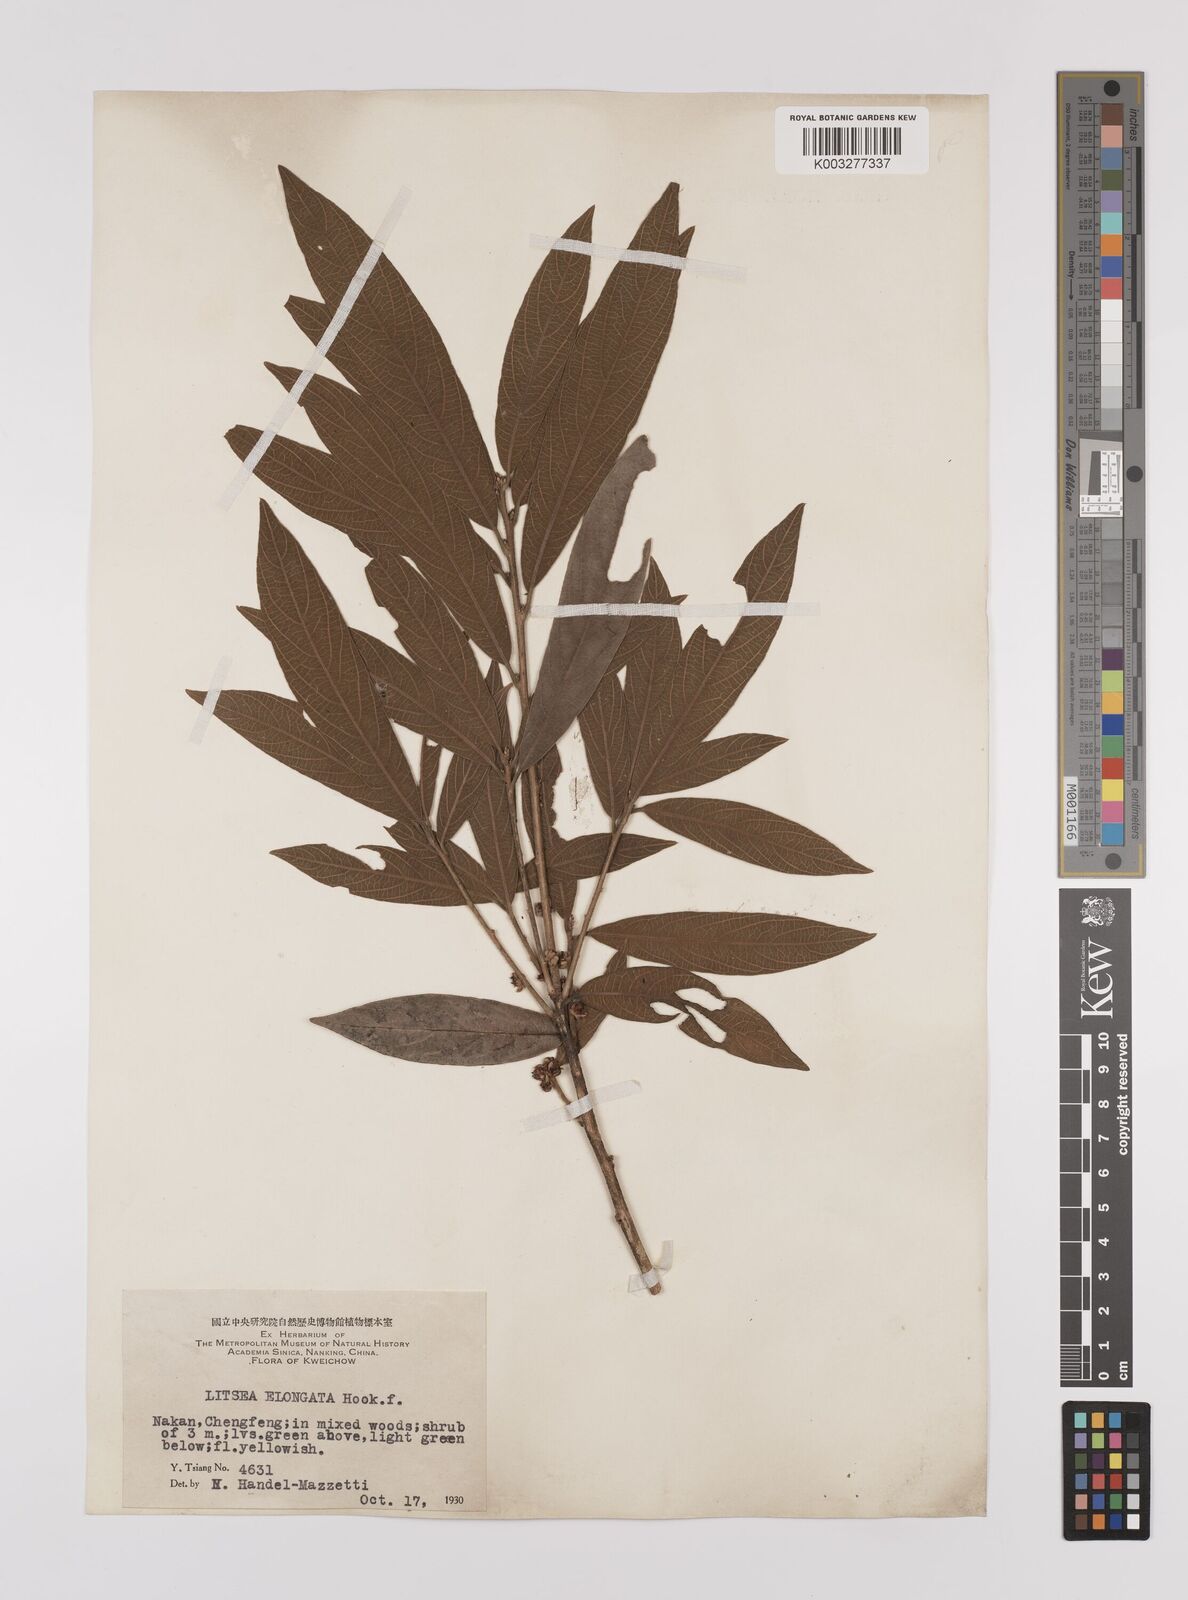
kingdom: Plantae
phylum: Tracheophyta
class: Magnoliopsida
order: Laurales
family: Lauraceae
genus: Litsea
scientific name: Litsea elongata
